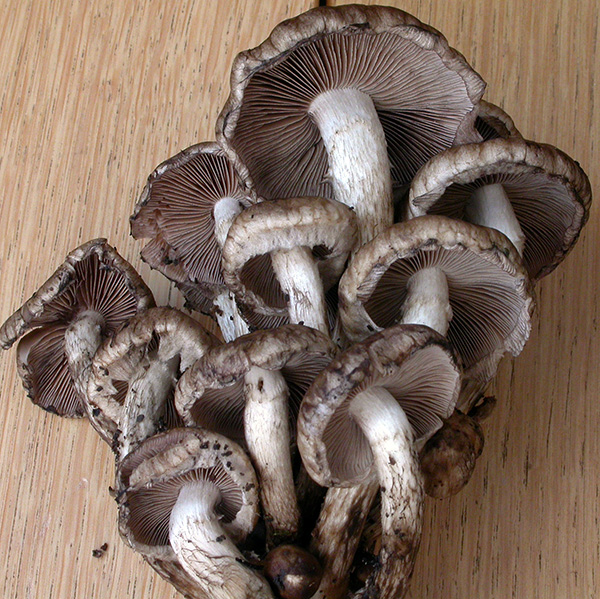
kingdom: Fungi
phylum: Basidiomycota
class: Agaricomycetes
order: Agaricales
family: Psathyrellaceae
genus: Psathyrella
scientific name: Psathyrella maculata
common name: sortskællet mørkhat
